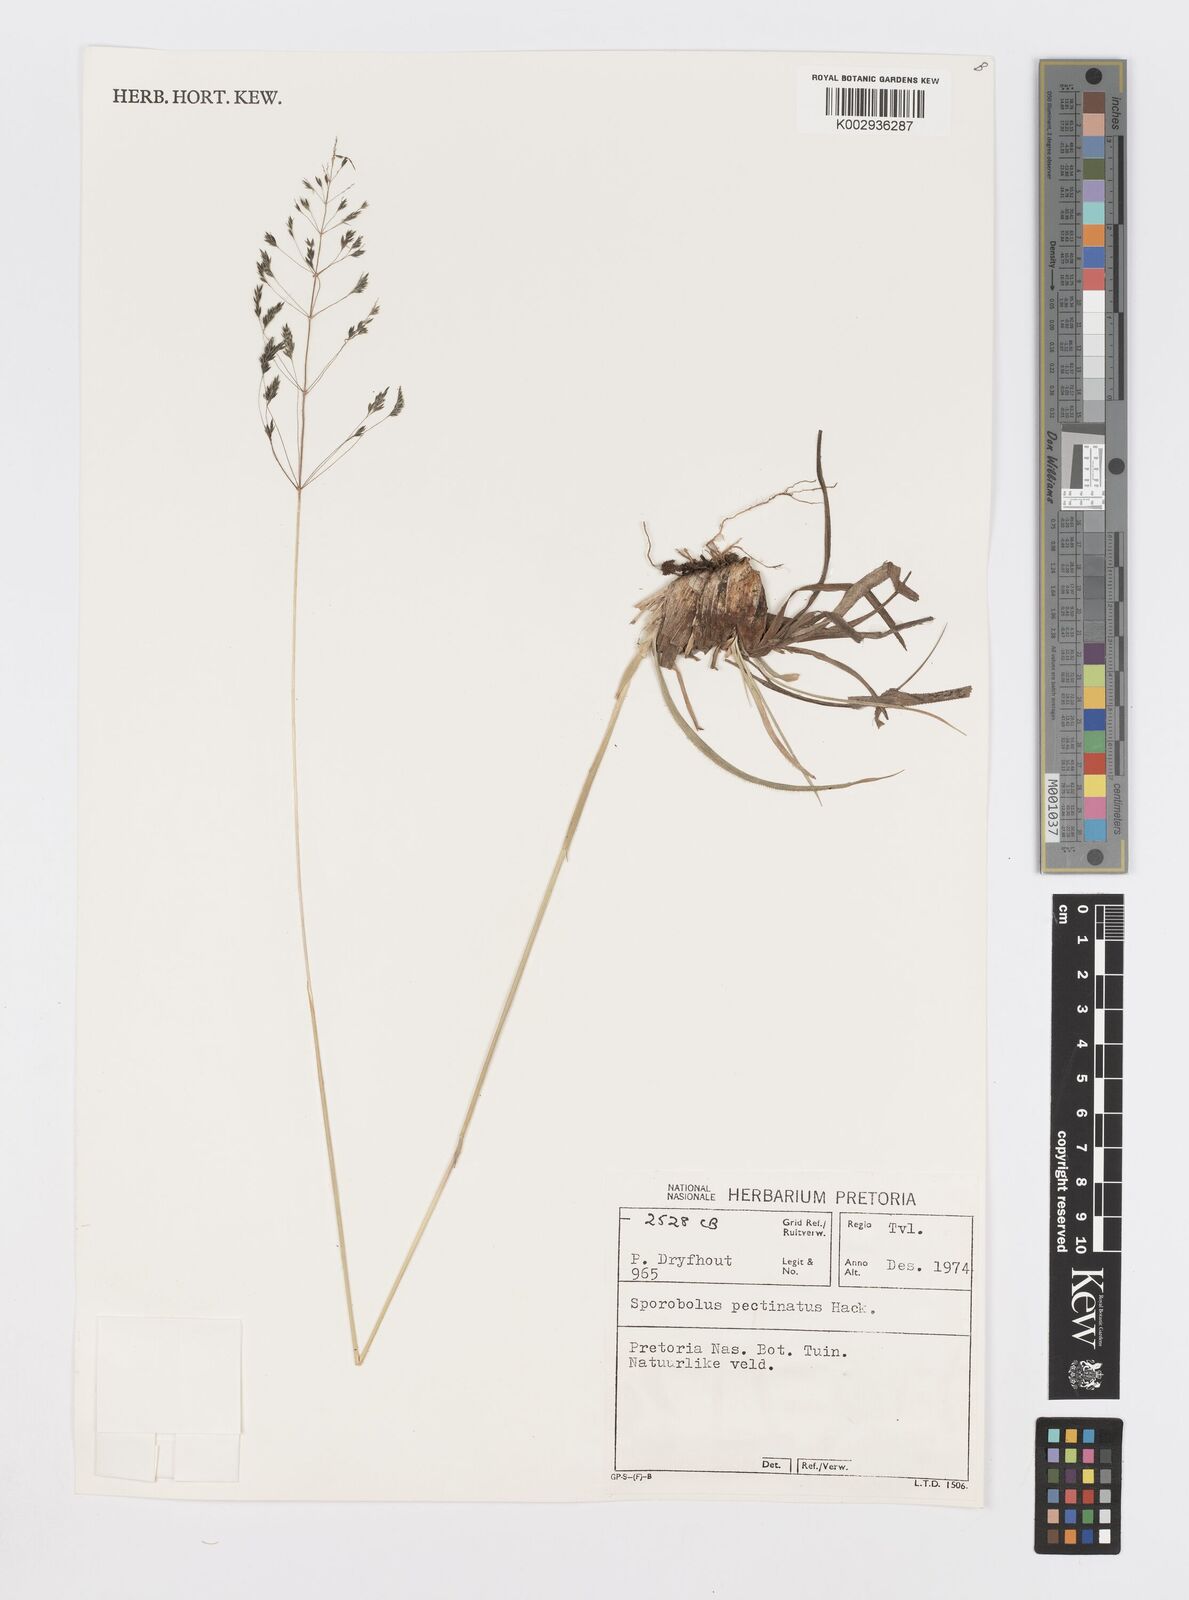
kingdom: Plantae
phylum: Tracheophyta
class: Liliopsida
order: Poales
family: Poaceae
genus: Sporobolus
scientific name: Sporobolus pectinatus
